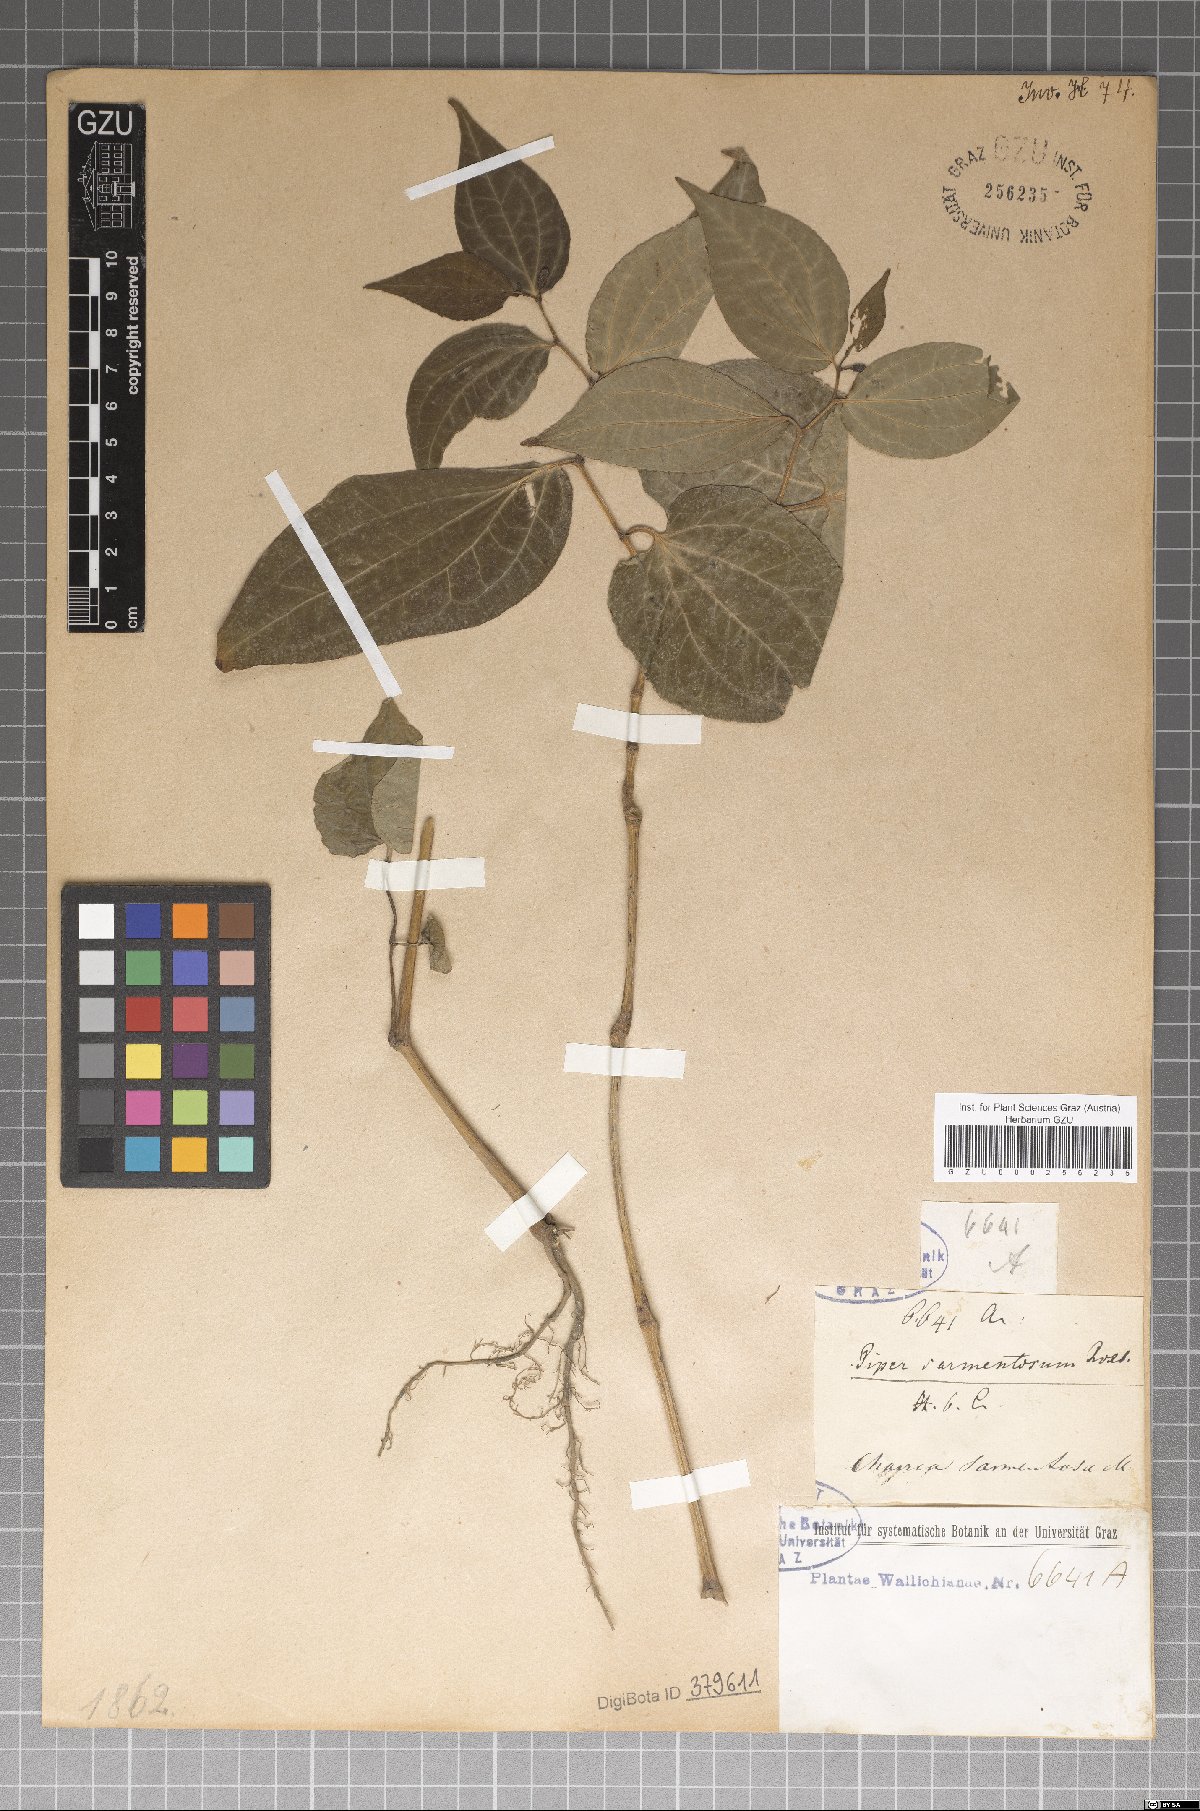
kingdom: Plantae
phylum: Tracheophyta
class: Magnoliopsida
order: Piperales
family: Piperaceae
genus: Piper
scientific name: Piper sarmentosum
